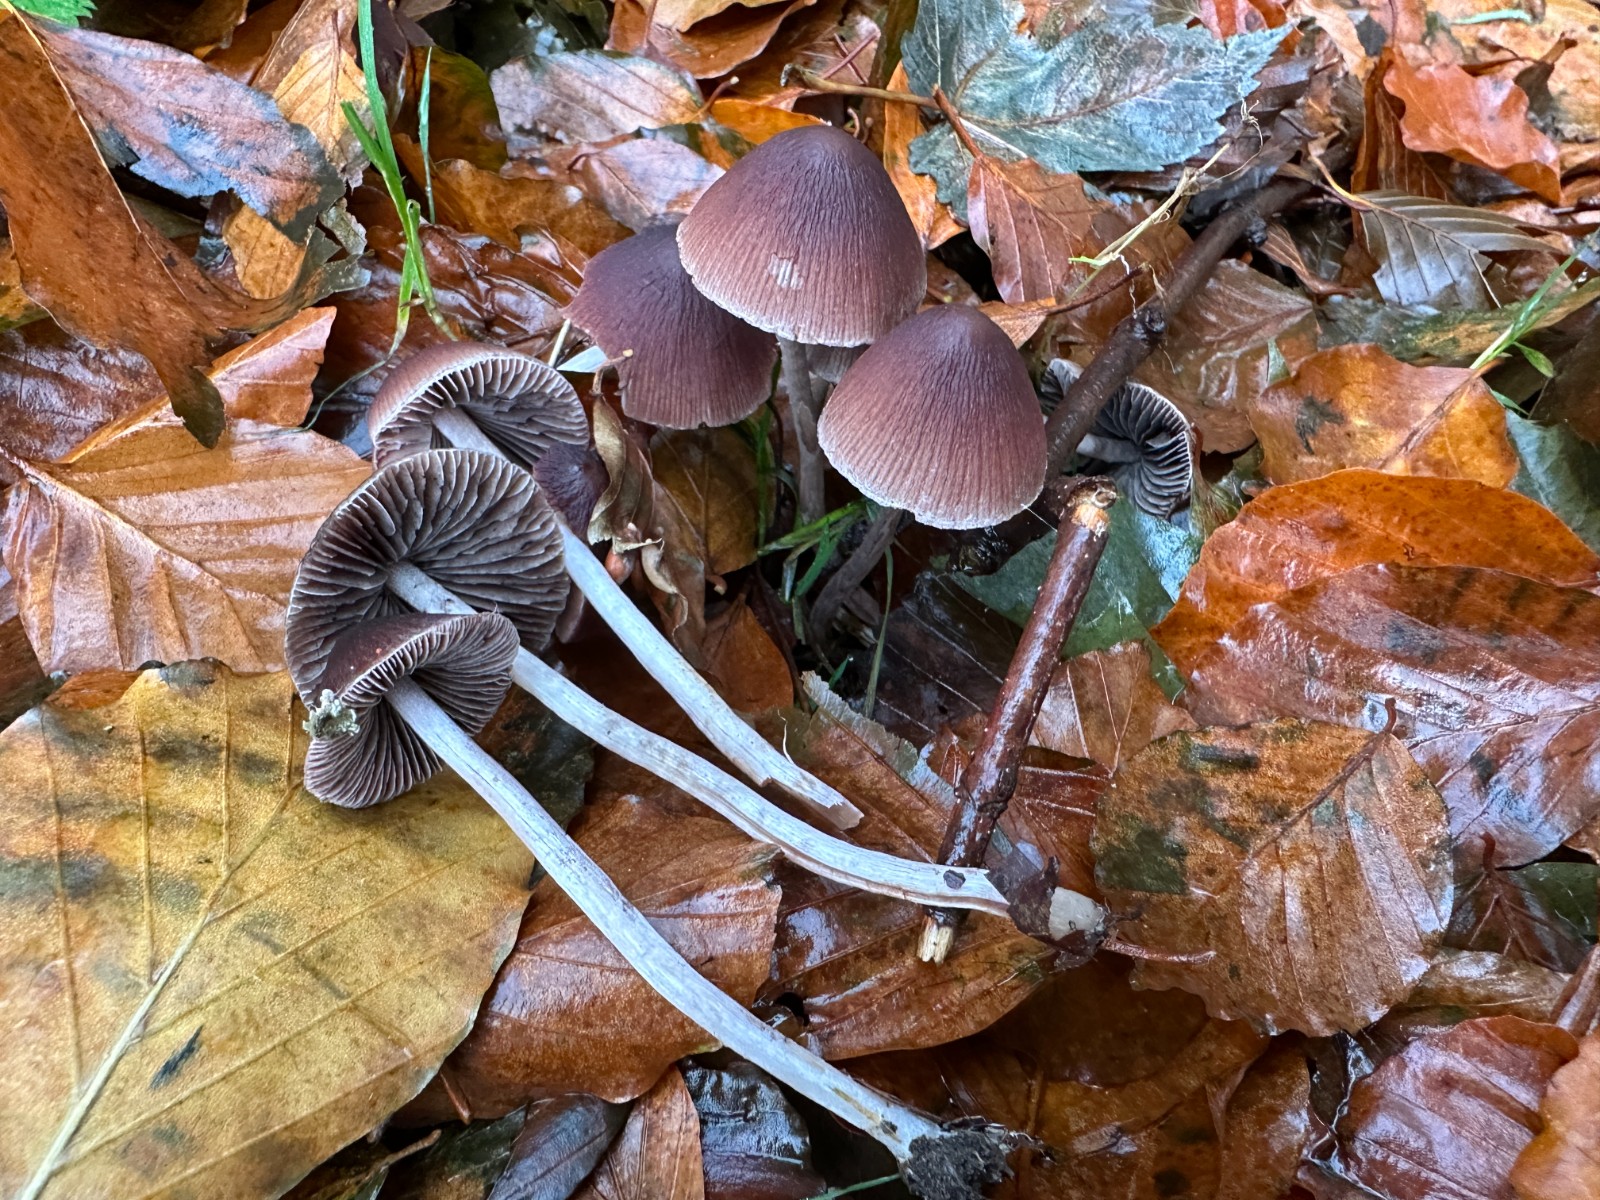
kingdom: Fungi
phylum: Basidiomycota
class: Agaricomycetes
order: Agaricales
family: Psathyrellaceae
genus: Psathyrella
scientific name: Psathyrella bipellis
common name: vinrød mørkhat
